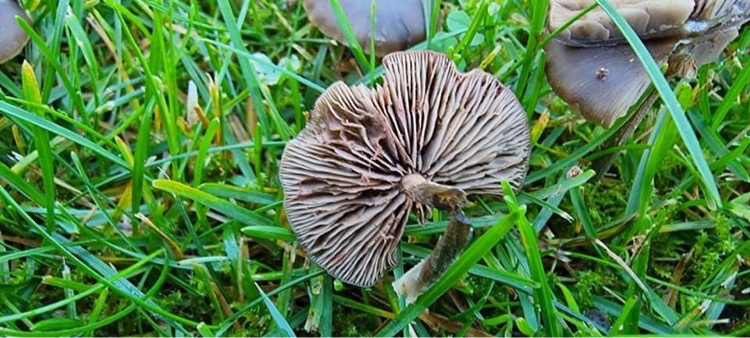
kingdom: Fungi
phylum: Basidiomycota
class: Agaricomycetes
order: Agaricales
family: Entolomataceae
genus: Entoloma
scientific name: Entoloma
